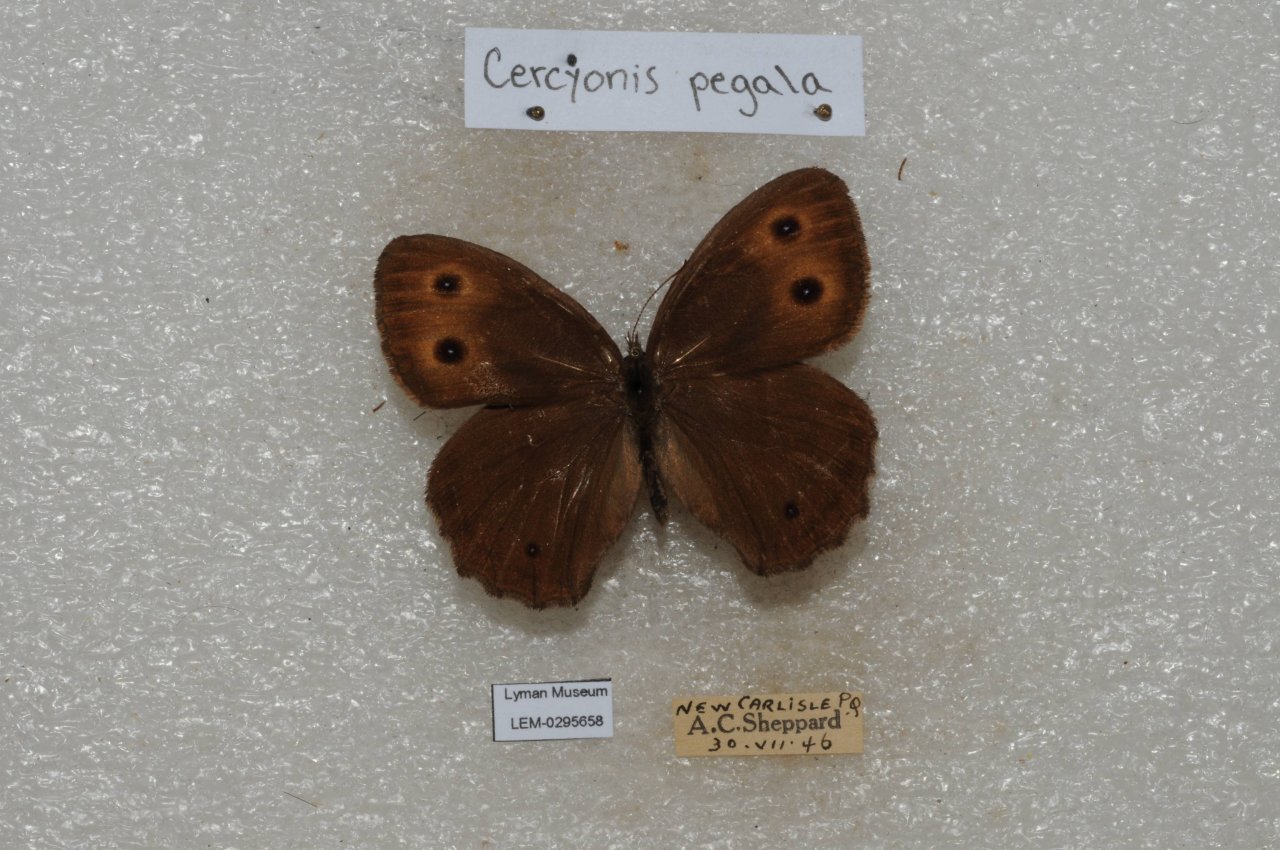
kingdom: Animalia
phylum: Arthropoda
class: Insecta
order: Lepidoptera
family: Nymphalidae
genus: Cercyonis
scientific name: Cercyonis pegala
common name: Common Wood-Nymph
